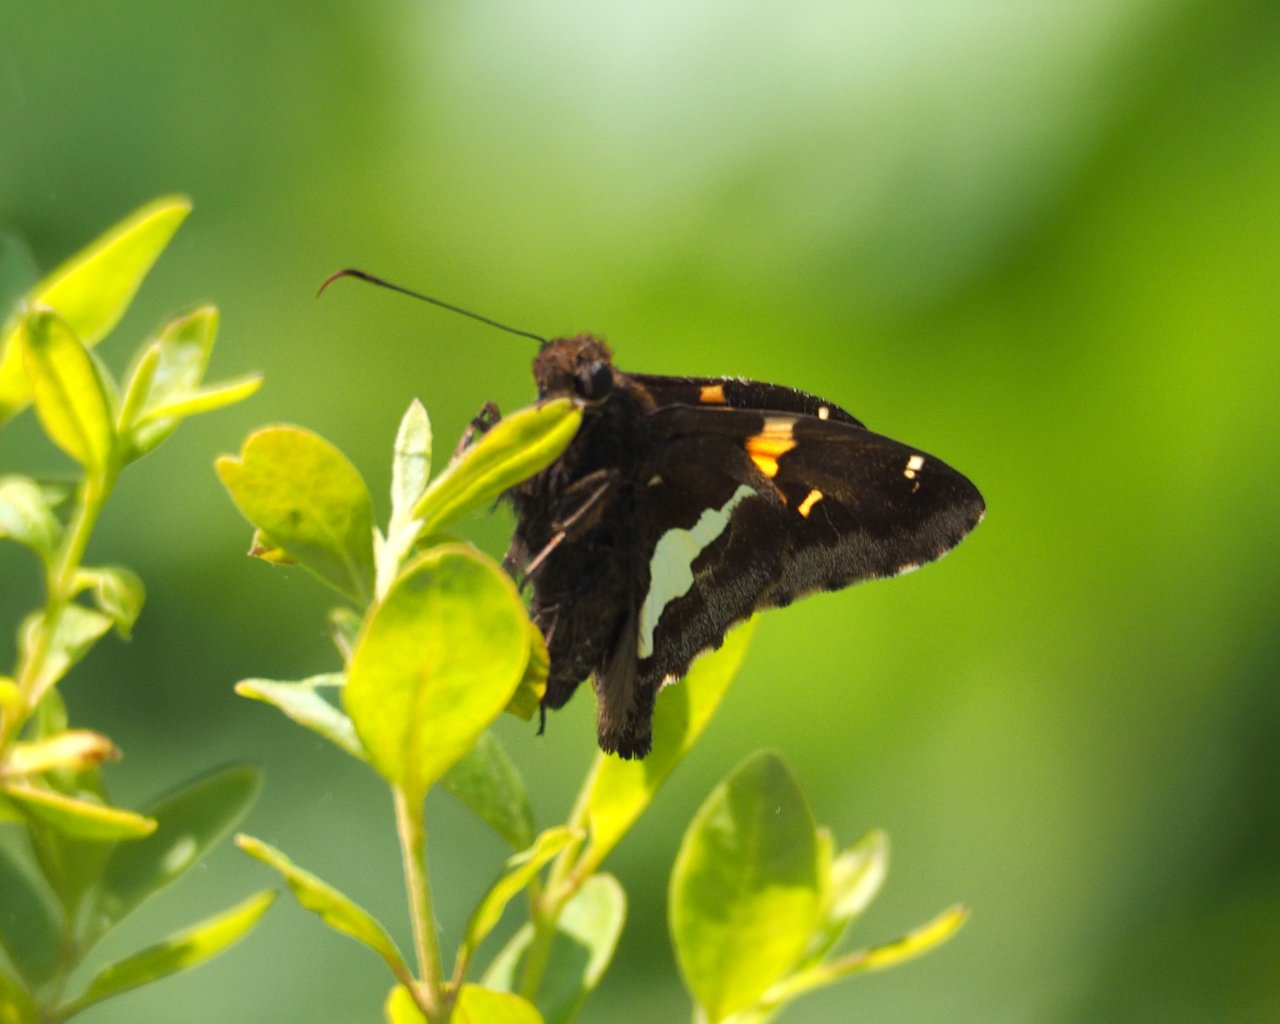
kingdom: Animalia
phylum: Arthropoda
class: Insecta
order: Lepidoptera
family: Hesperiidae
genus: Epargyreus
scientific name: Epargyreus clarus
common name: Silver-spotted Skipper
